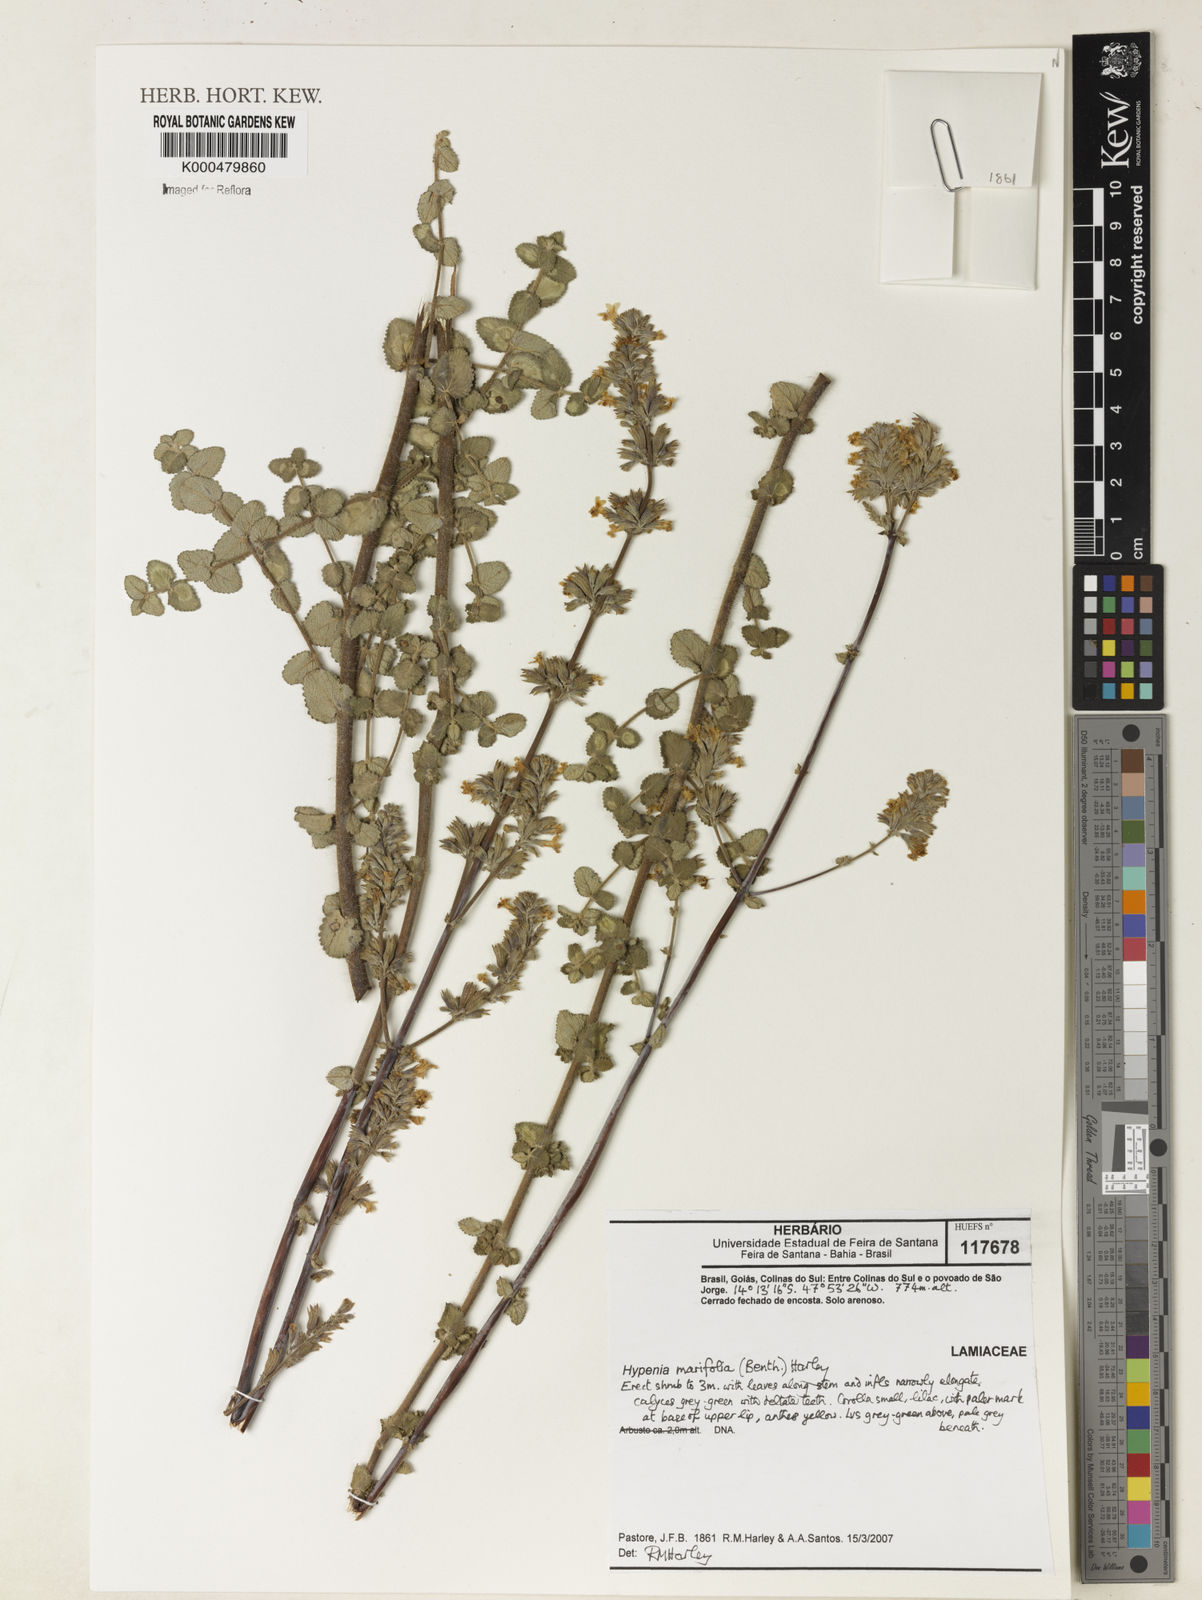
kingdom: Plantae
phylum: Tracheophyta
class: Magnoliopsida
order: Lamiales
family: Lamiaceae
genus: Hypenia
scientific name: Hypenia marifolia
